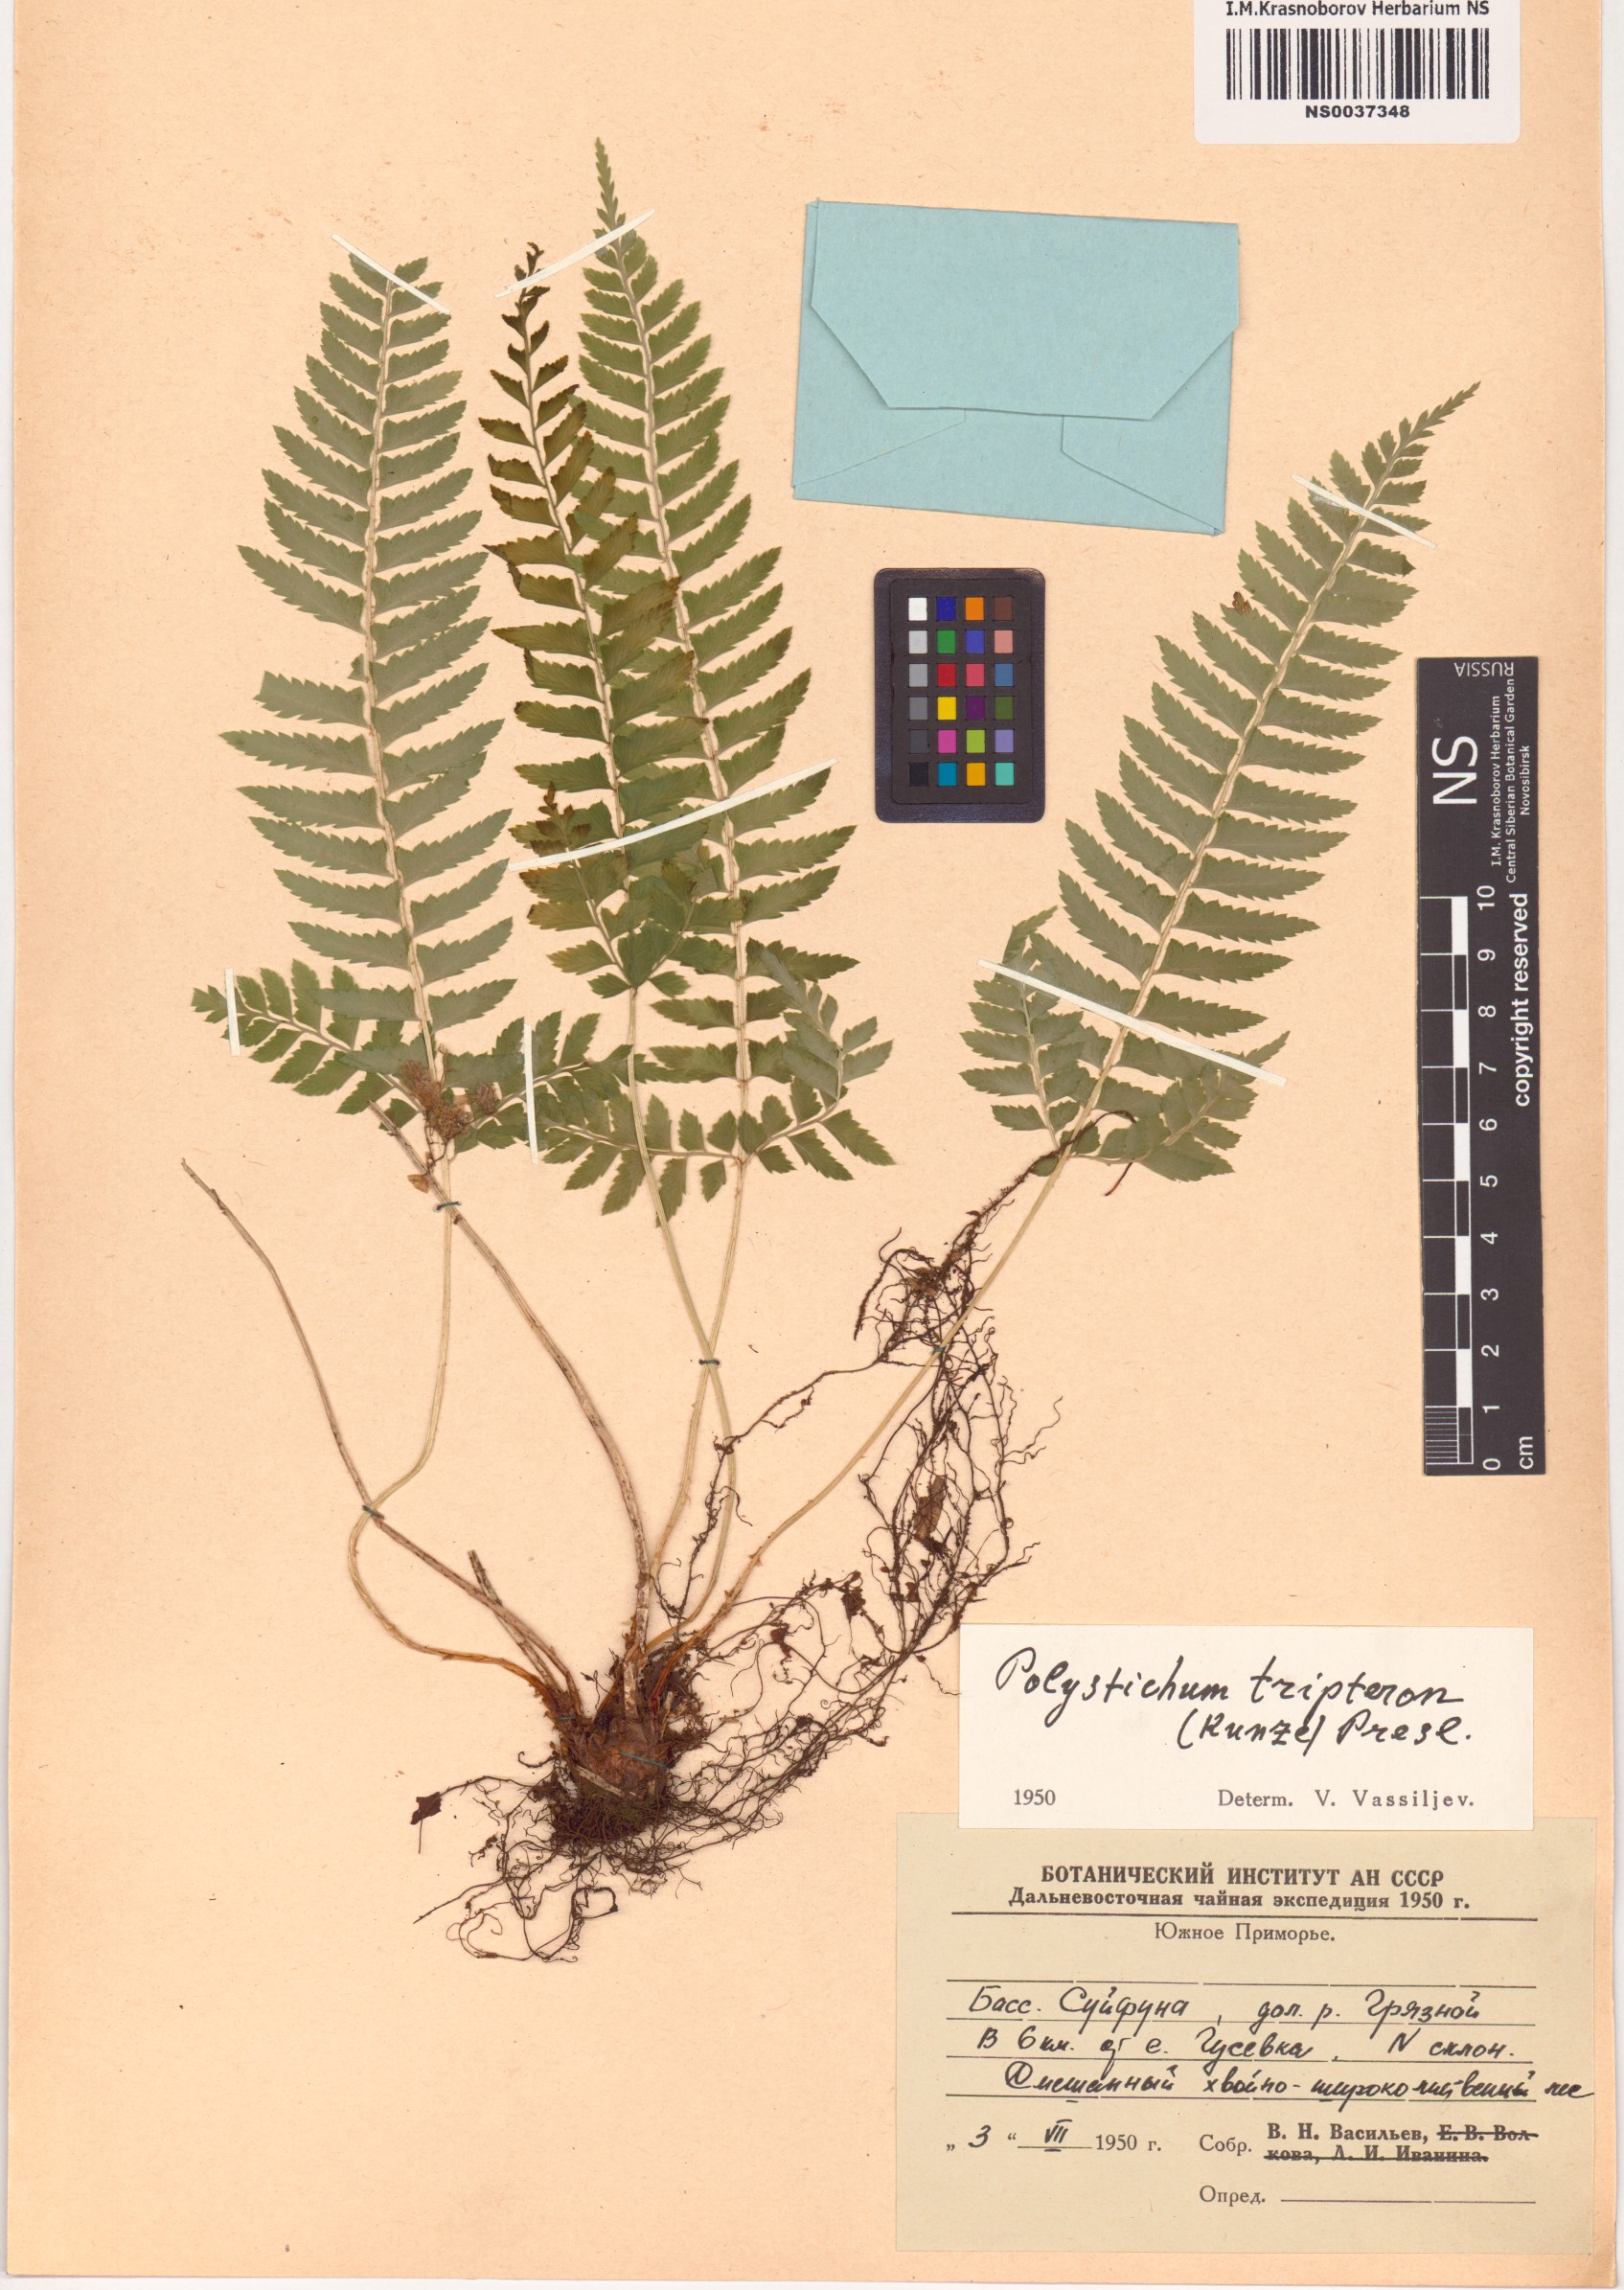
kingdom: Plantae
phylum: Tracheophyta
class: Polypodiopsida
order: Polypodiales
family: Dryopteridaceae
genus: Polystichum
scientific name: Polystichum tripteron
